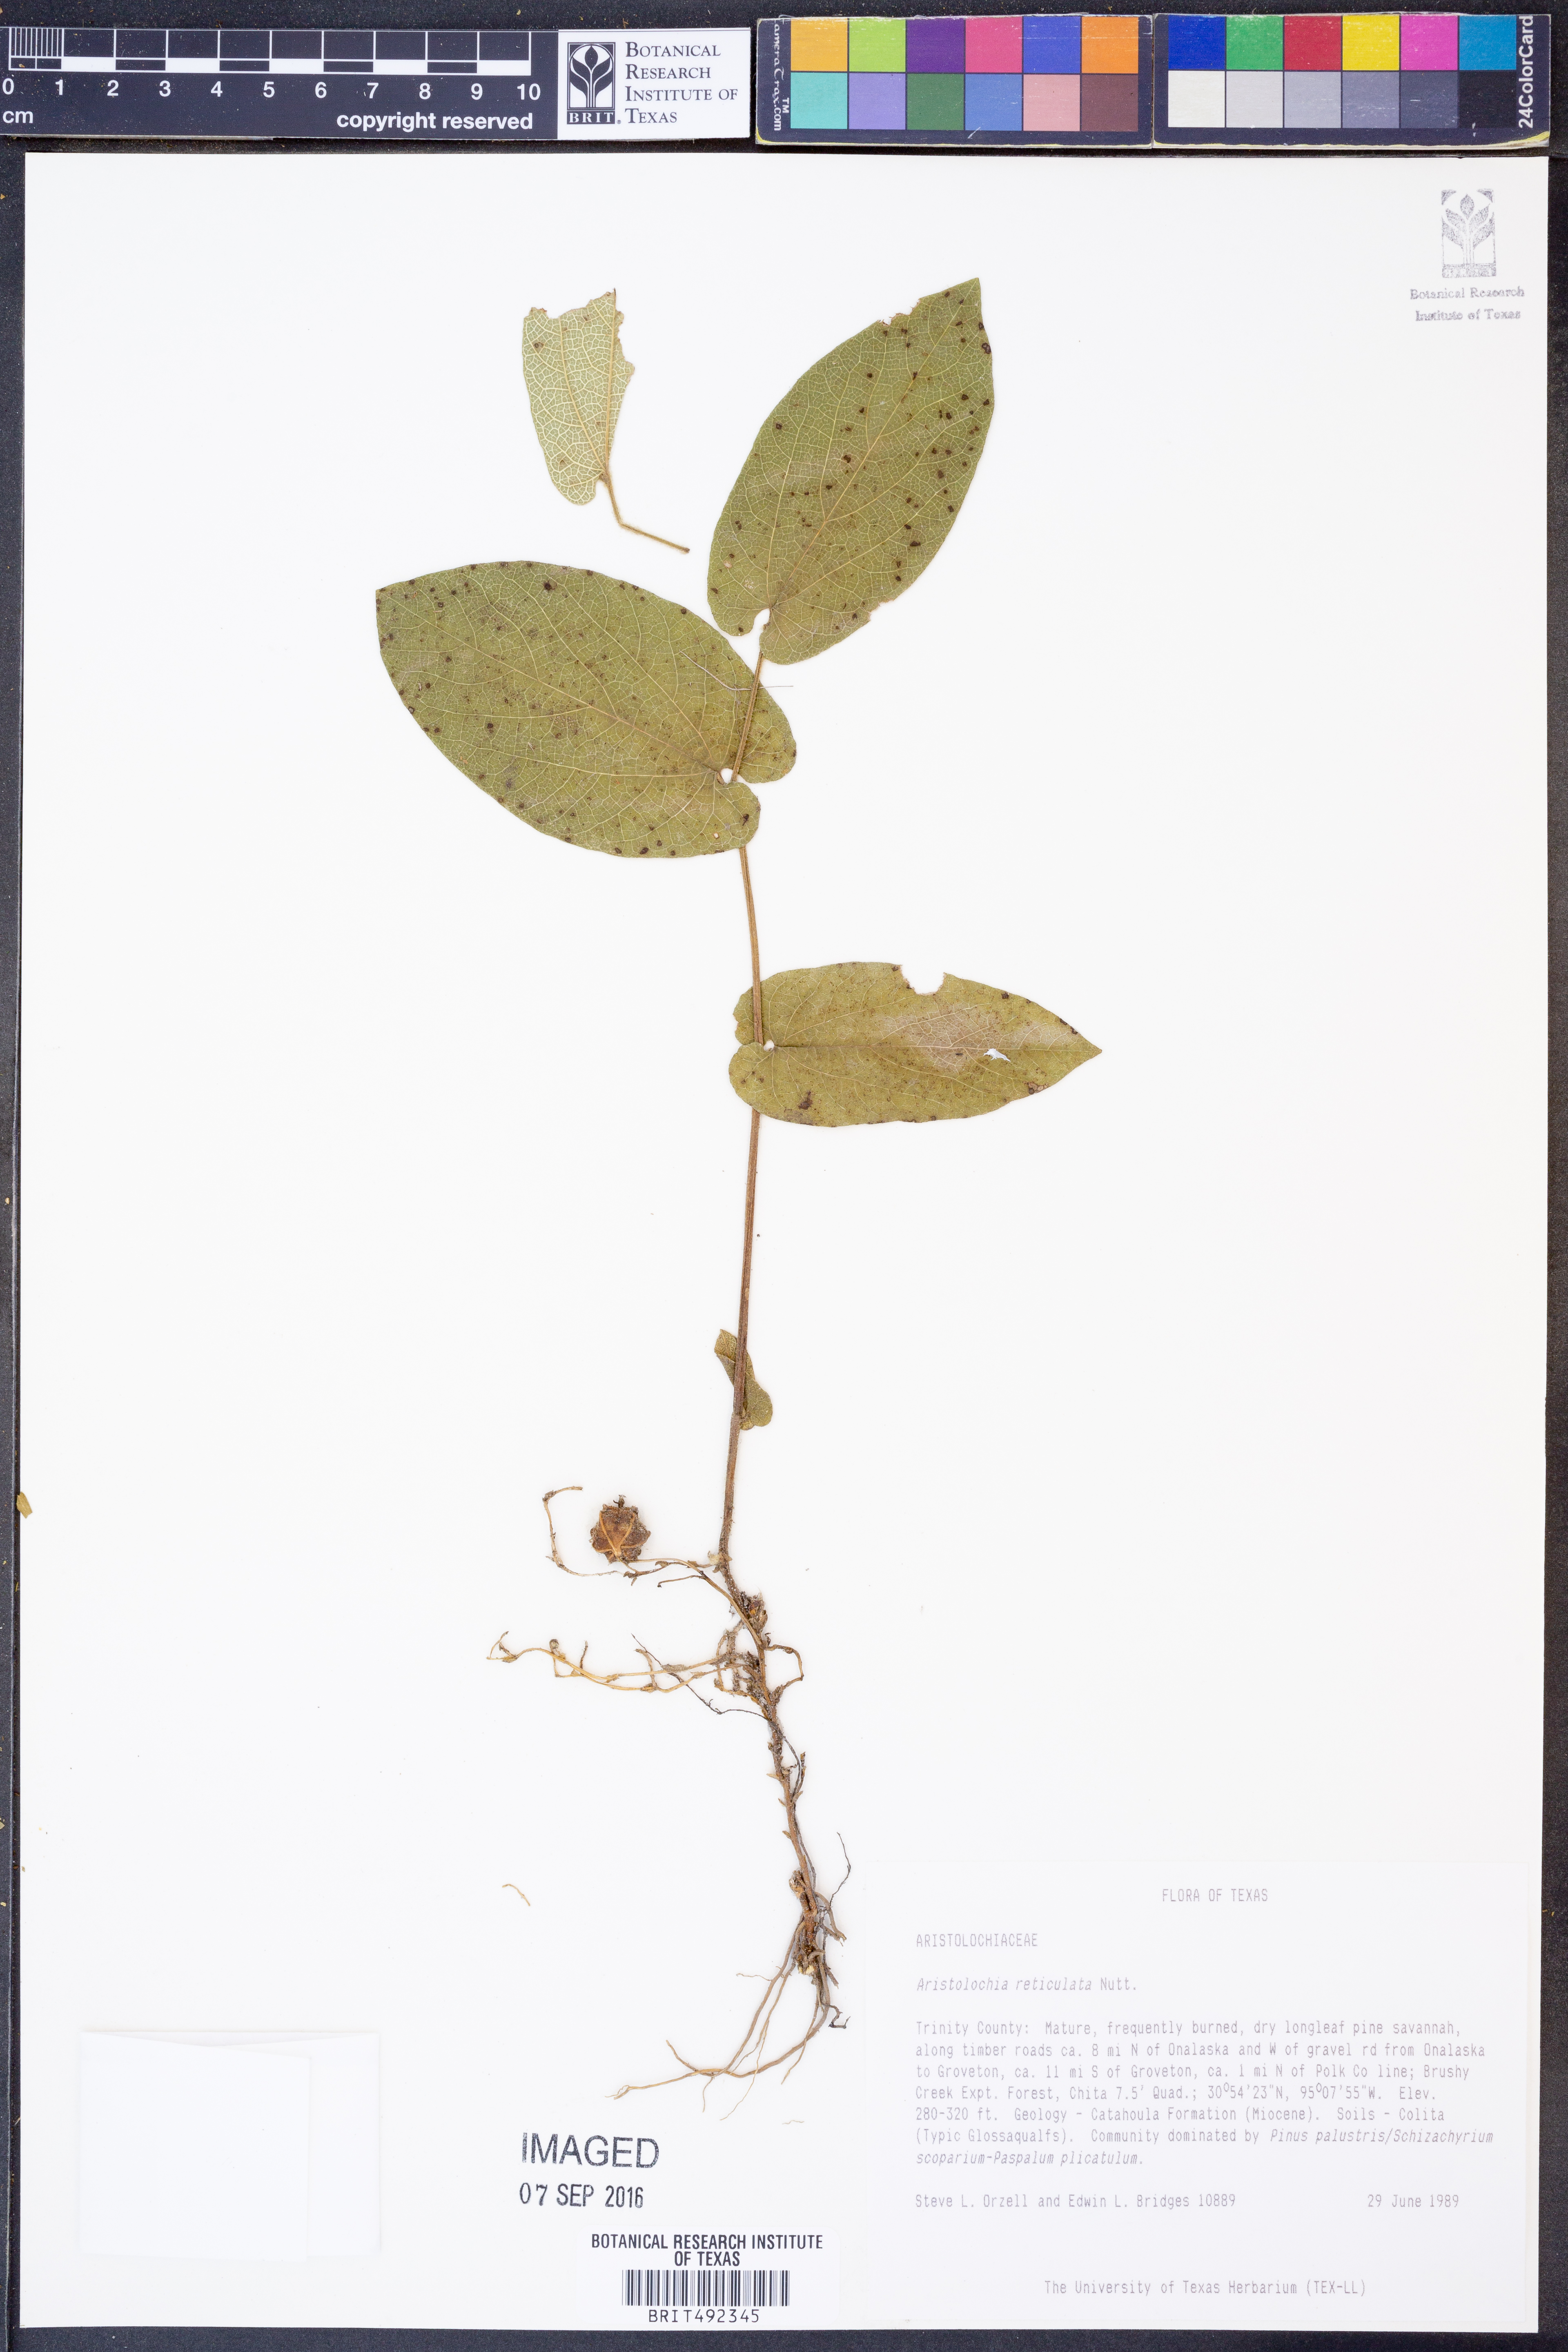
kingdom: Plantae
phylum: Tracheophyta
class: Magnoliopsida
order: Piperales
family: Aristolochiaceae
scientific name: Aristolochiaceae
